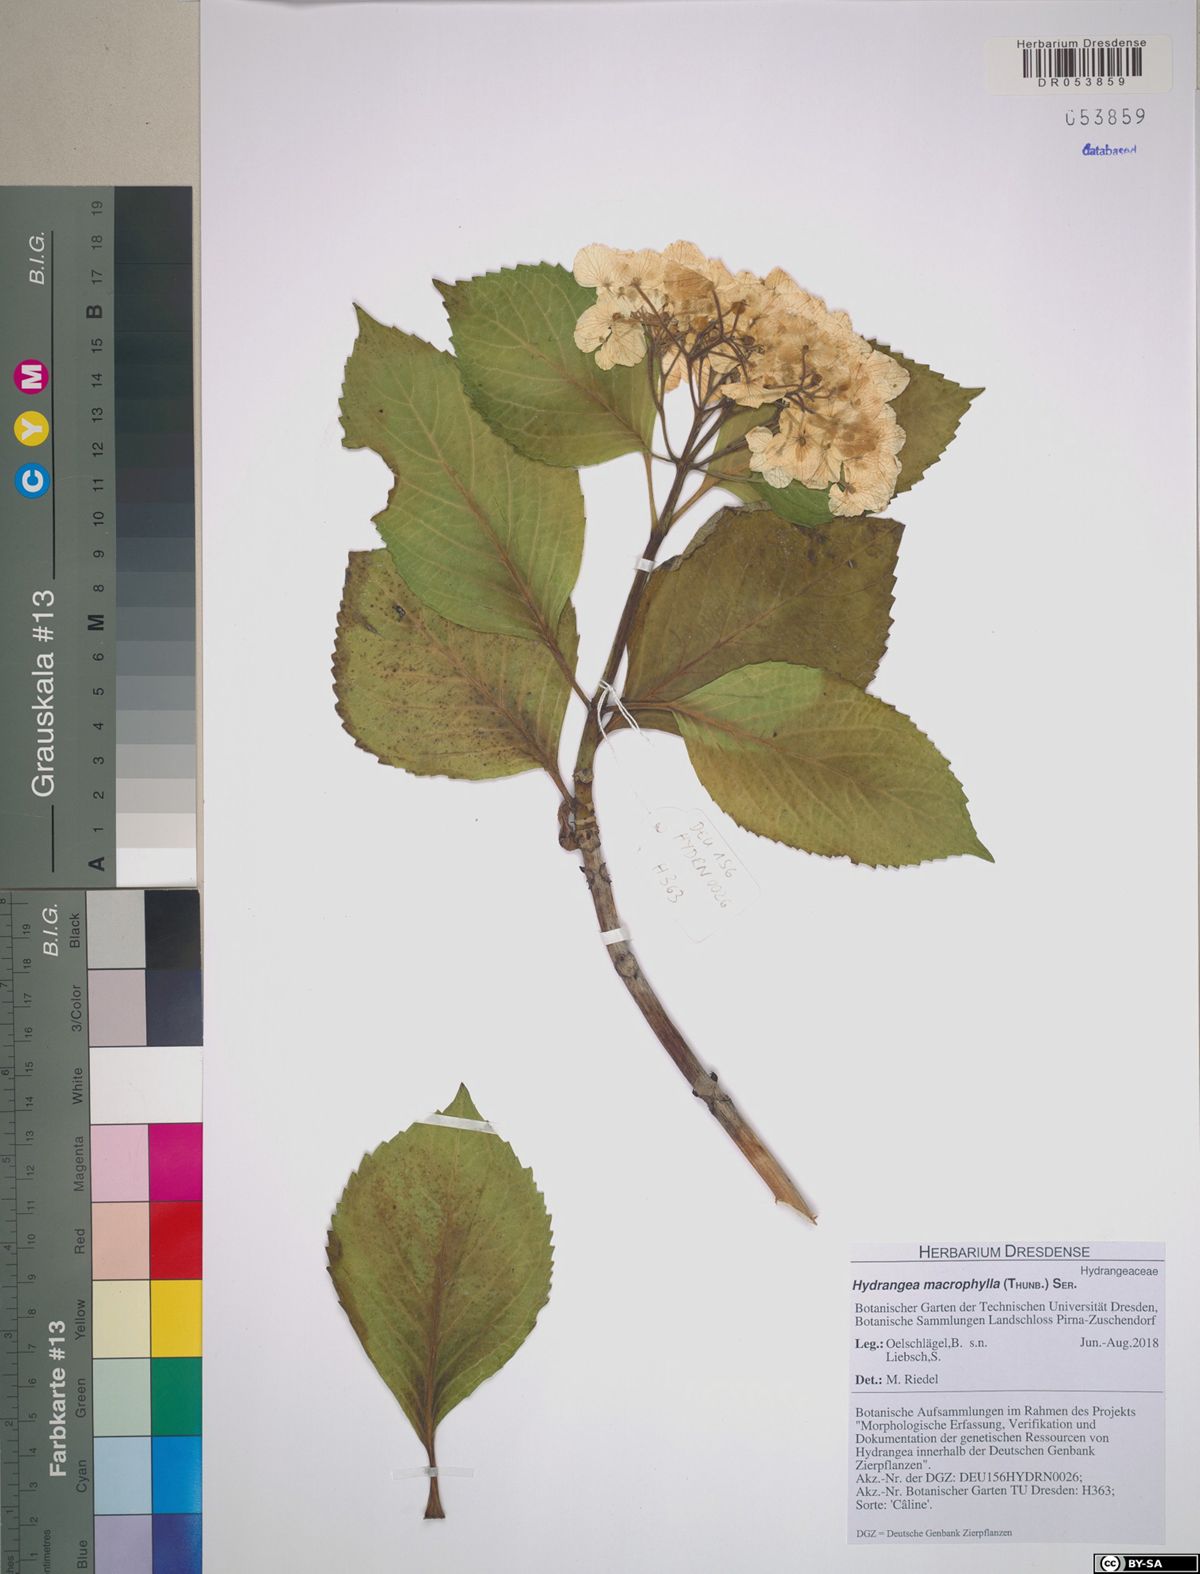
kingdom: Plantae
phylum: Tracheophyta
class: Magnoliopsida
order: Cornales
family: Hydrangeaceae
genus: Hydrangea
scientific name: Hydrangea macrophylla
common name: Hydrangea
